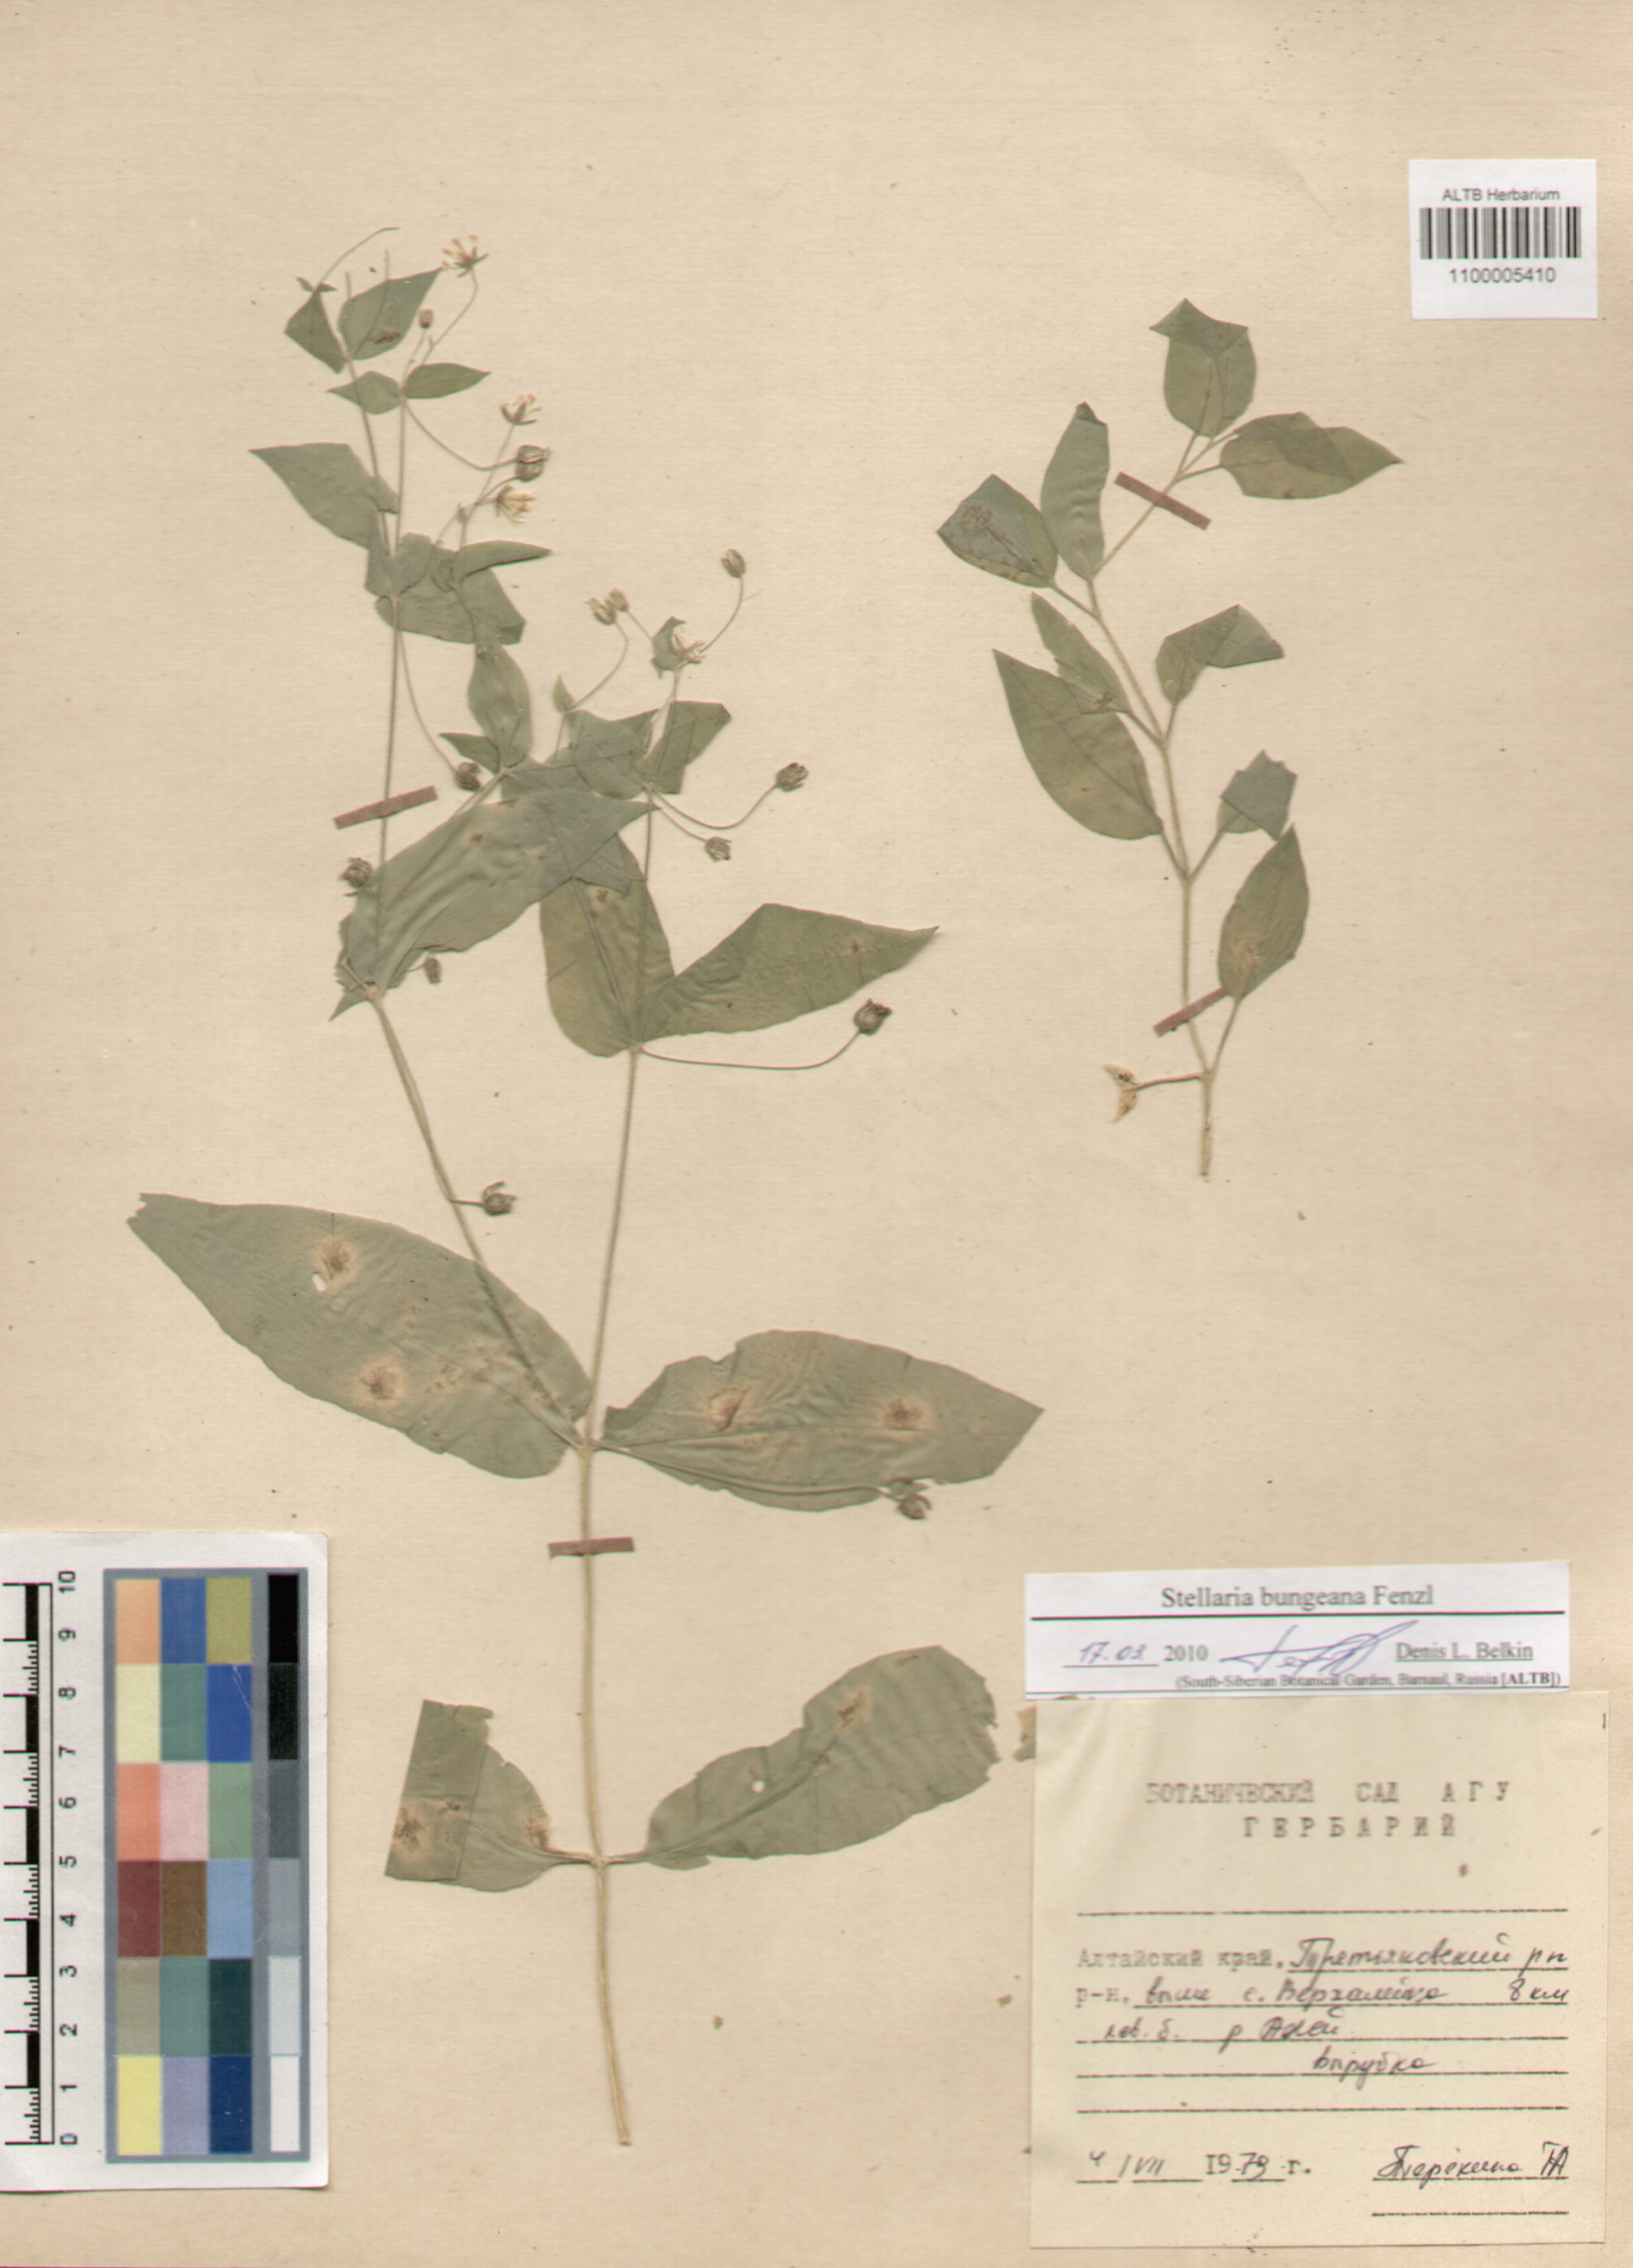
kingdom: Plantae
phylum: Tracheophyta
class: Magnoliopsida
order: Caryophyllales
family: Caryophyllaceae
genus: Stellaria
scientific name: Stellaria bungeana
